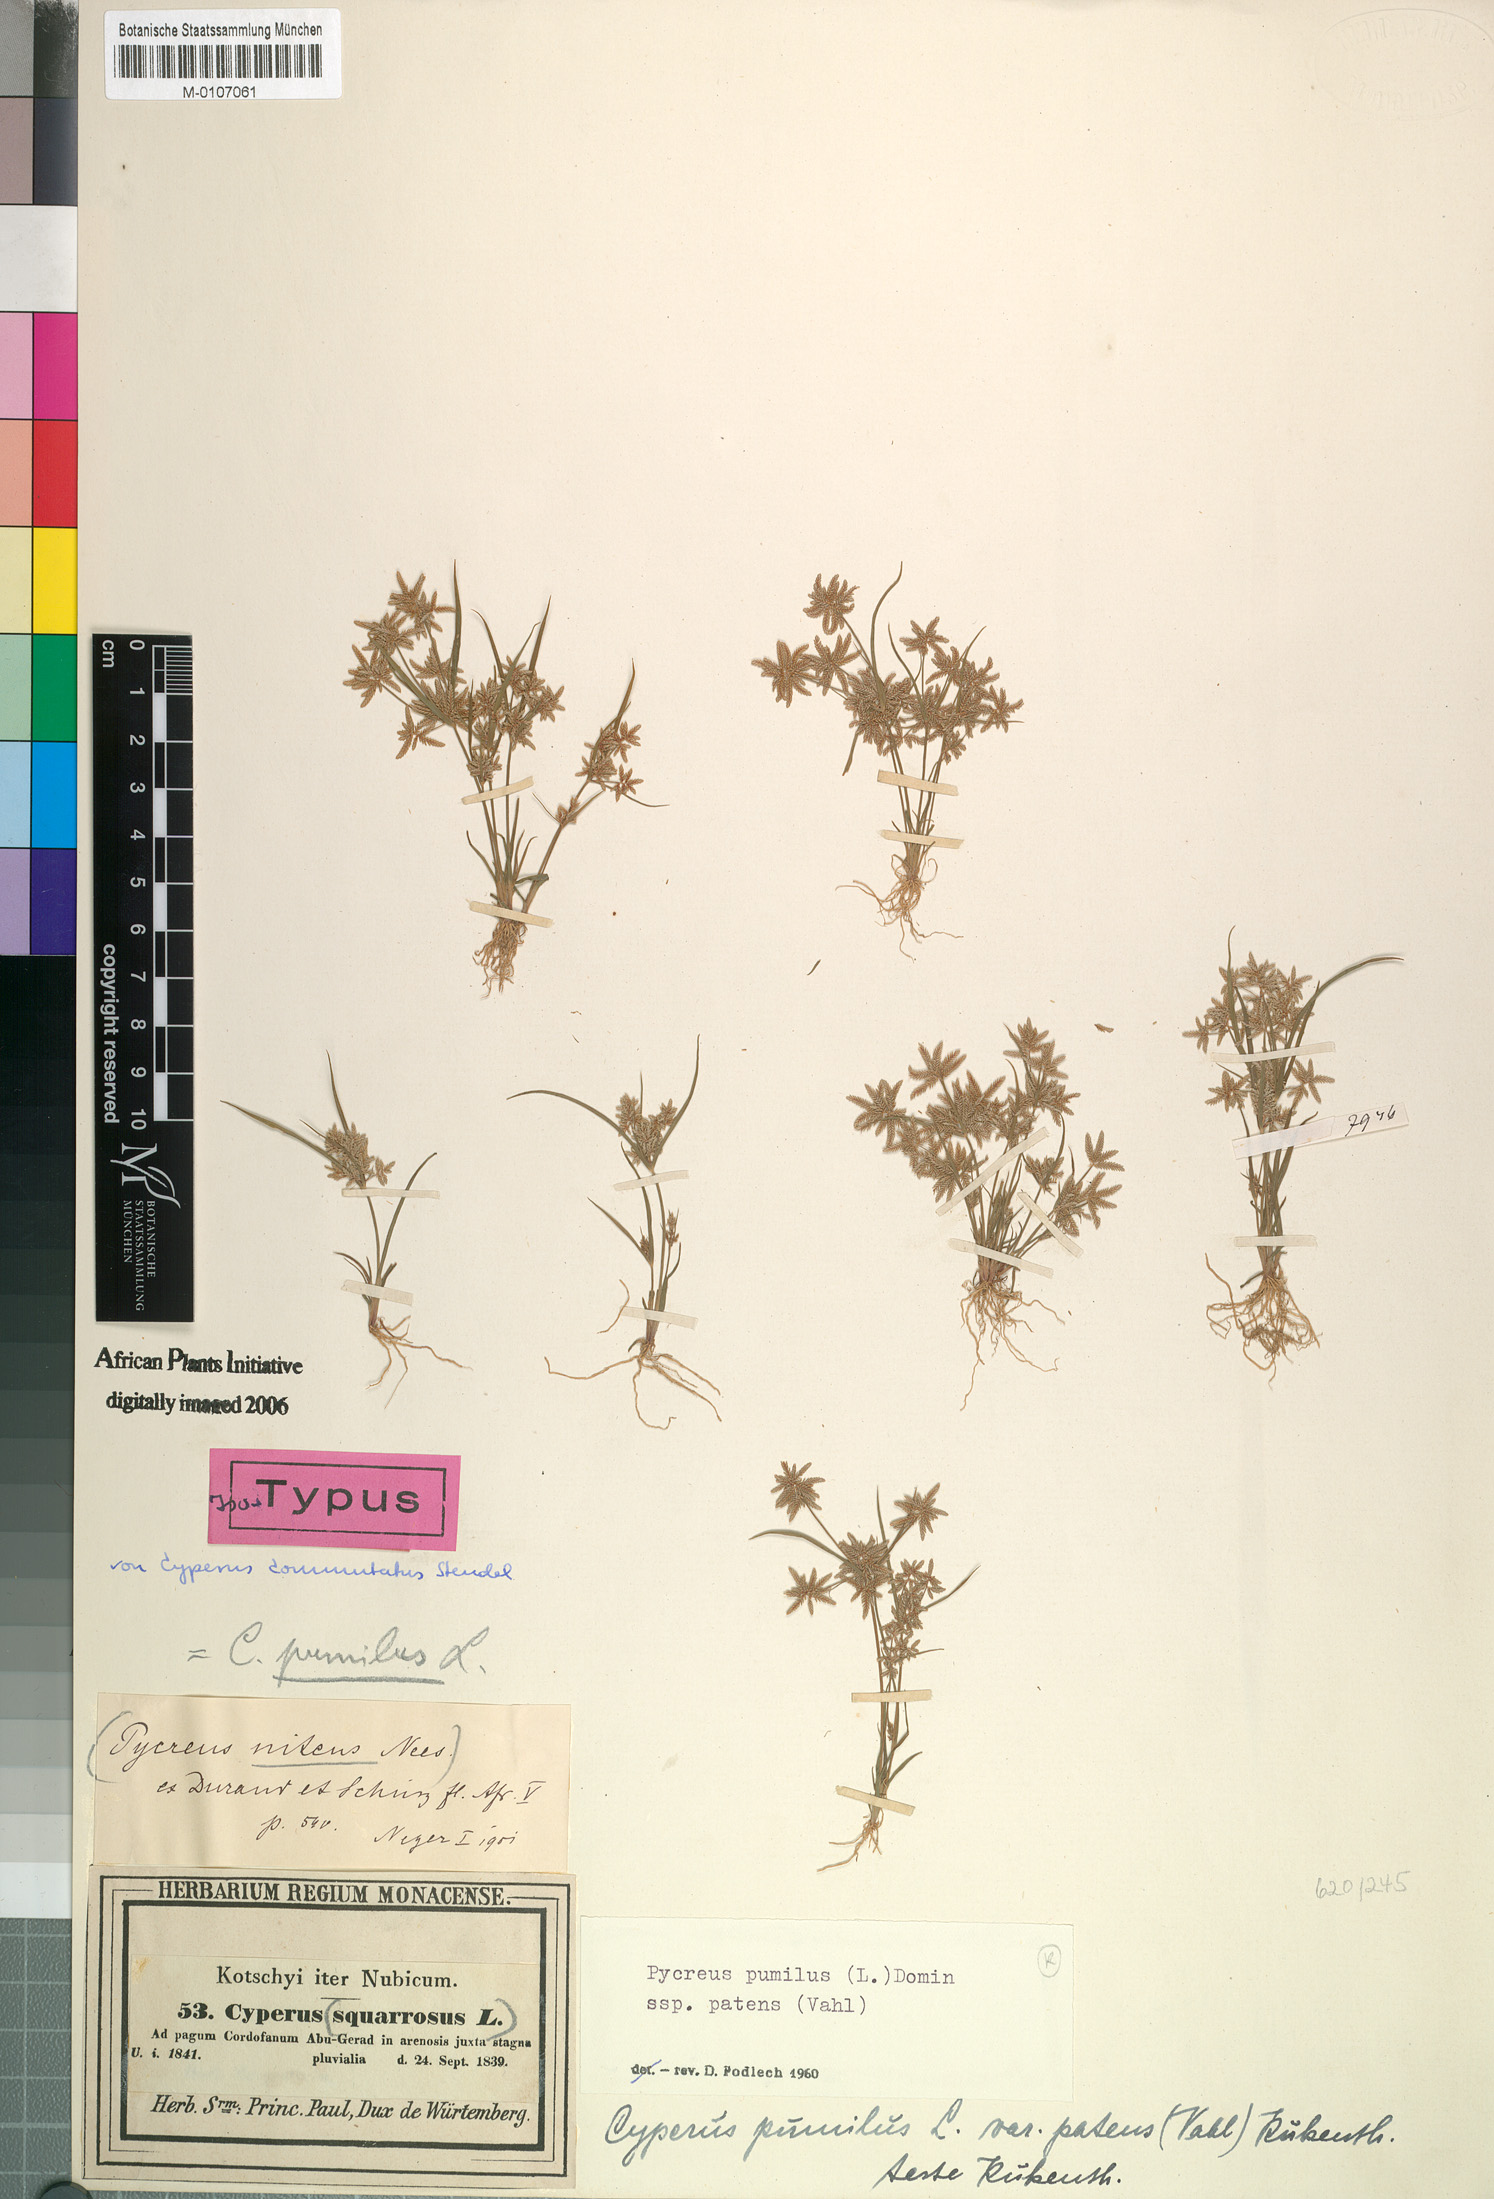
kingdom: Plantae
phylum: Tracheophyta
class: Liliopsida
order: Poales
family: Cyperaceae
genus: Cyperus
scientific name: Cyperus pumilus
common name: Low flatsedge
